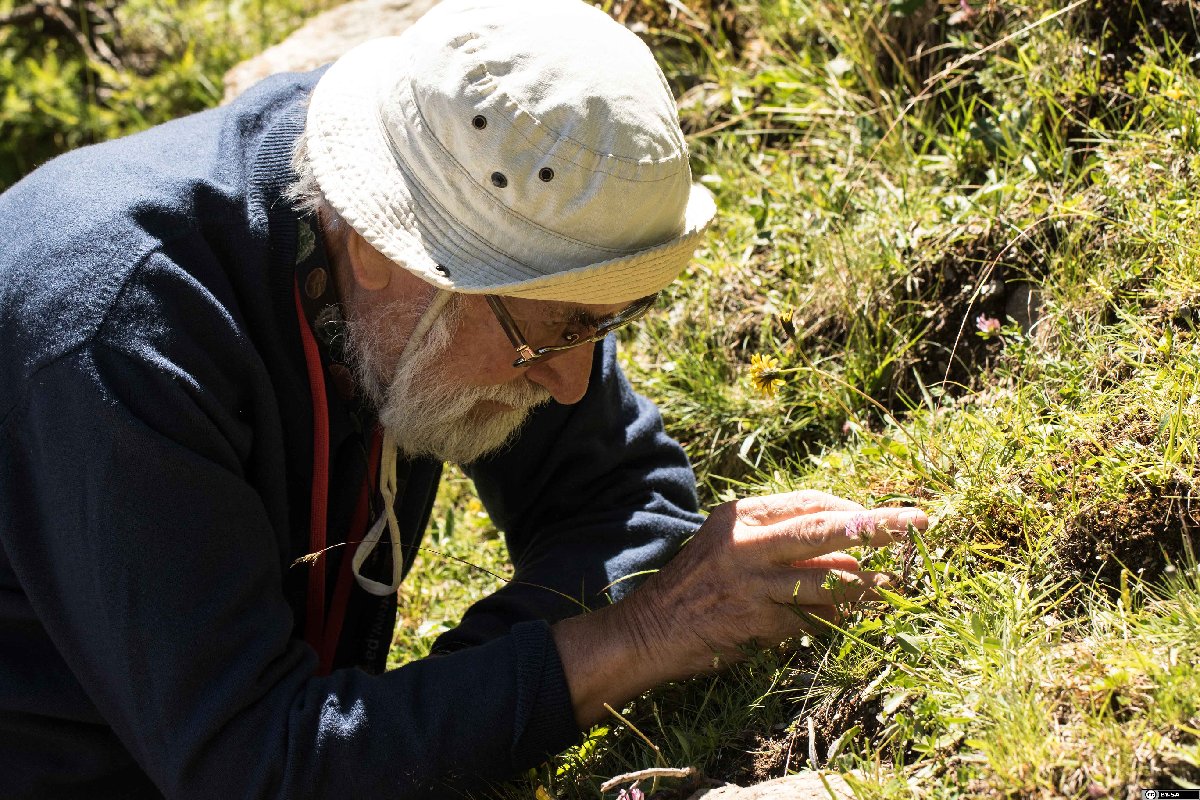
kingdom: Plantae
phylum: Tracheophyta
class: Polypodiopsida
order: Ophioglossales
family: Ophioglossaceae
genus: Botrychium
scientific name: Botrychium simplex
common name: Least moonwort
